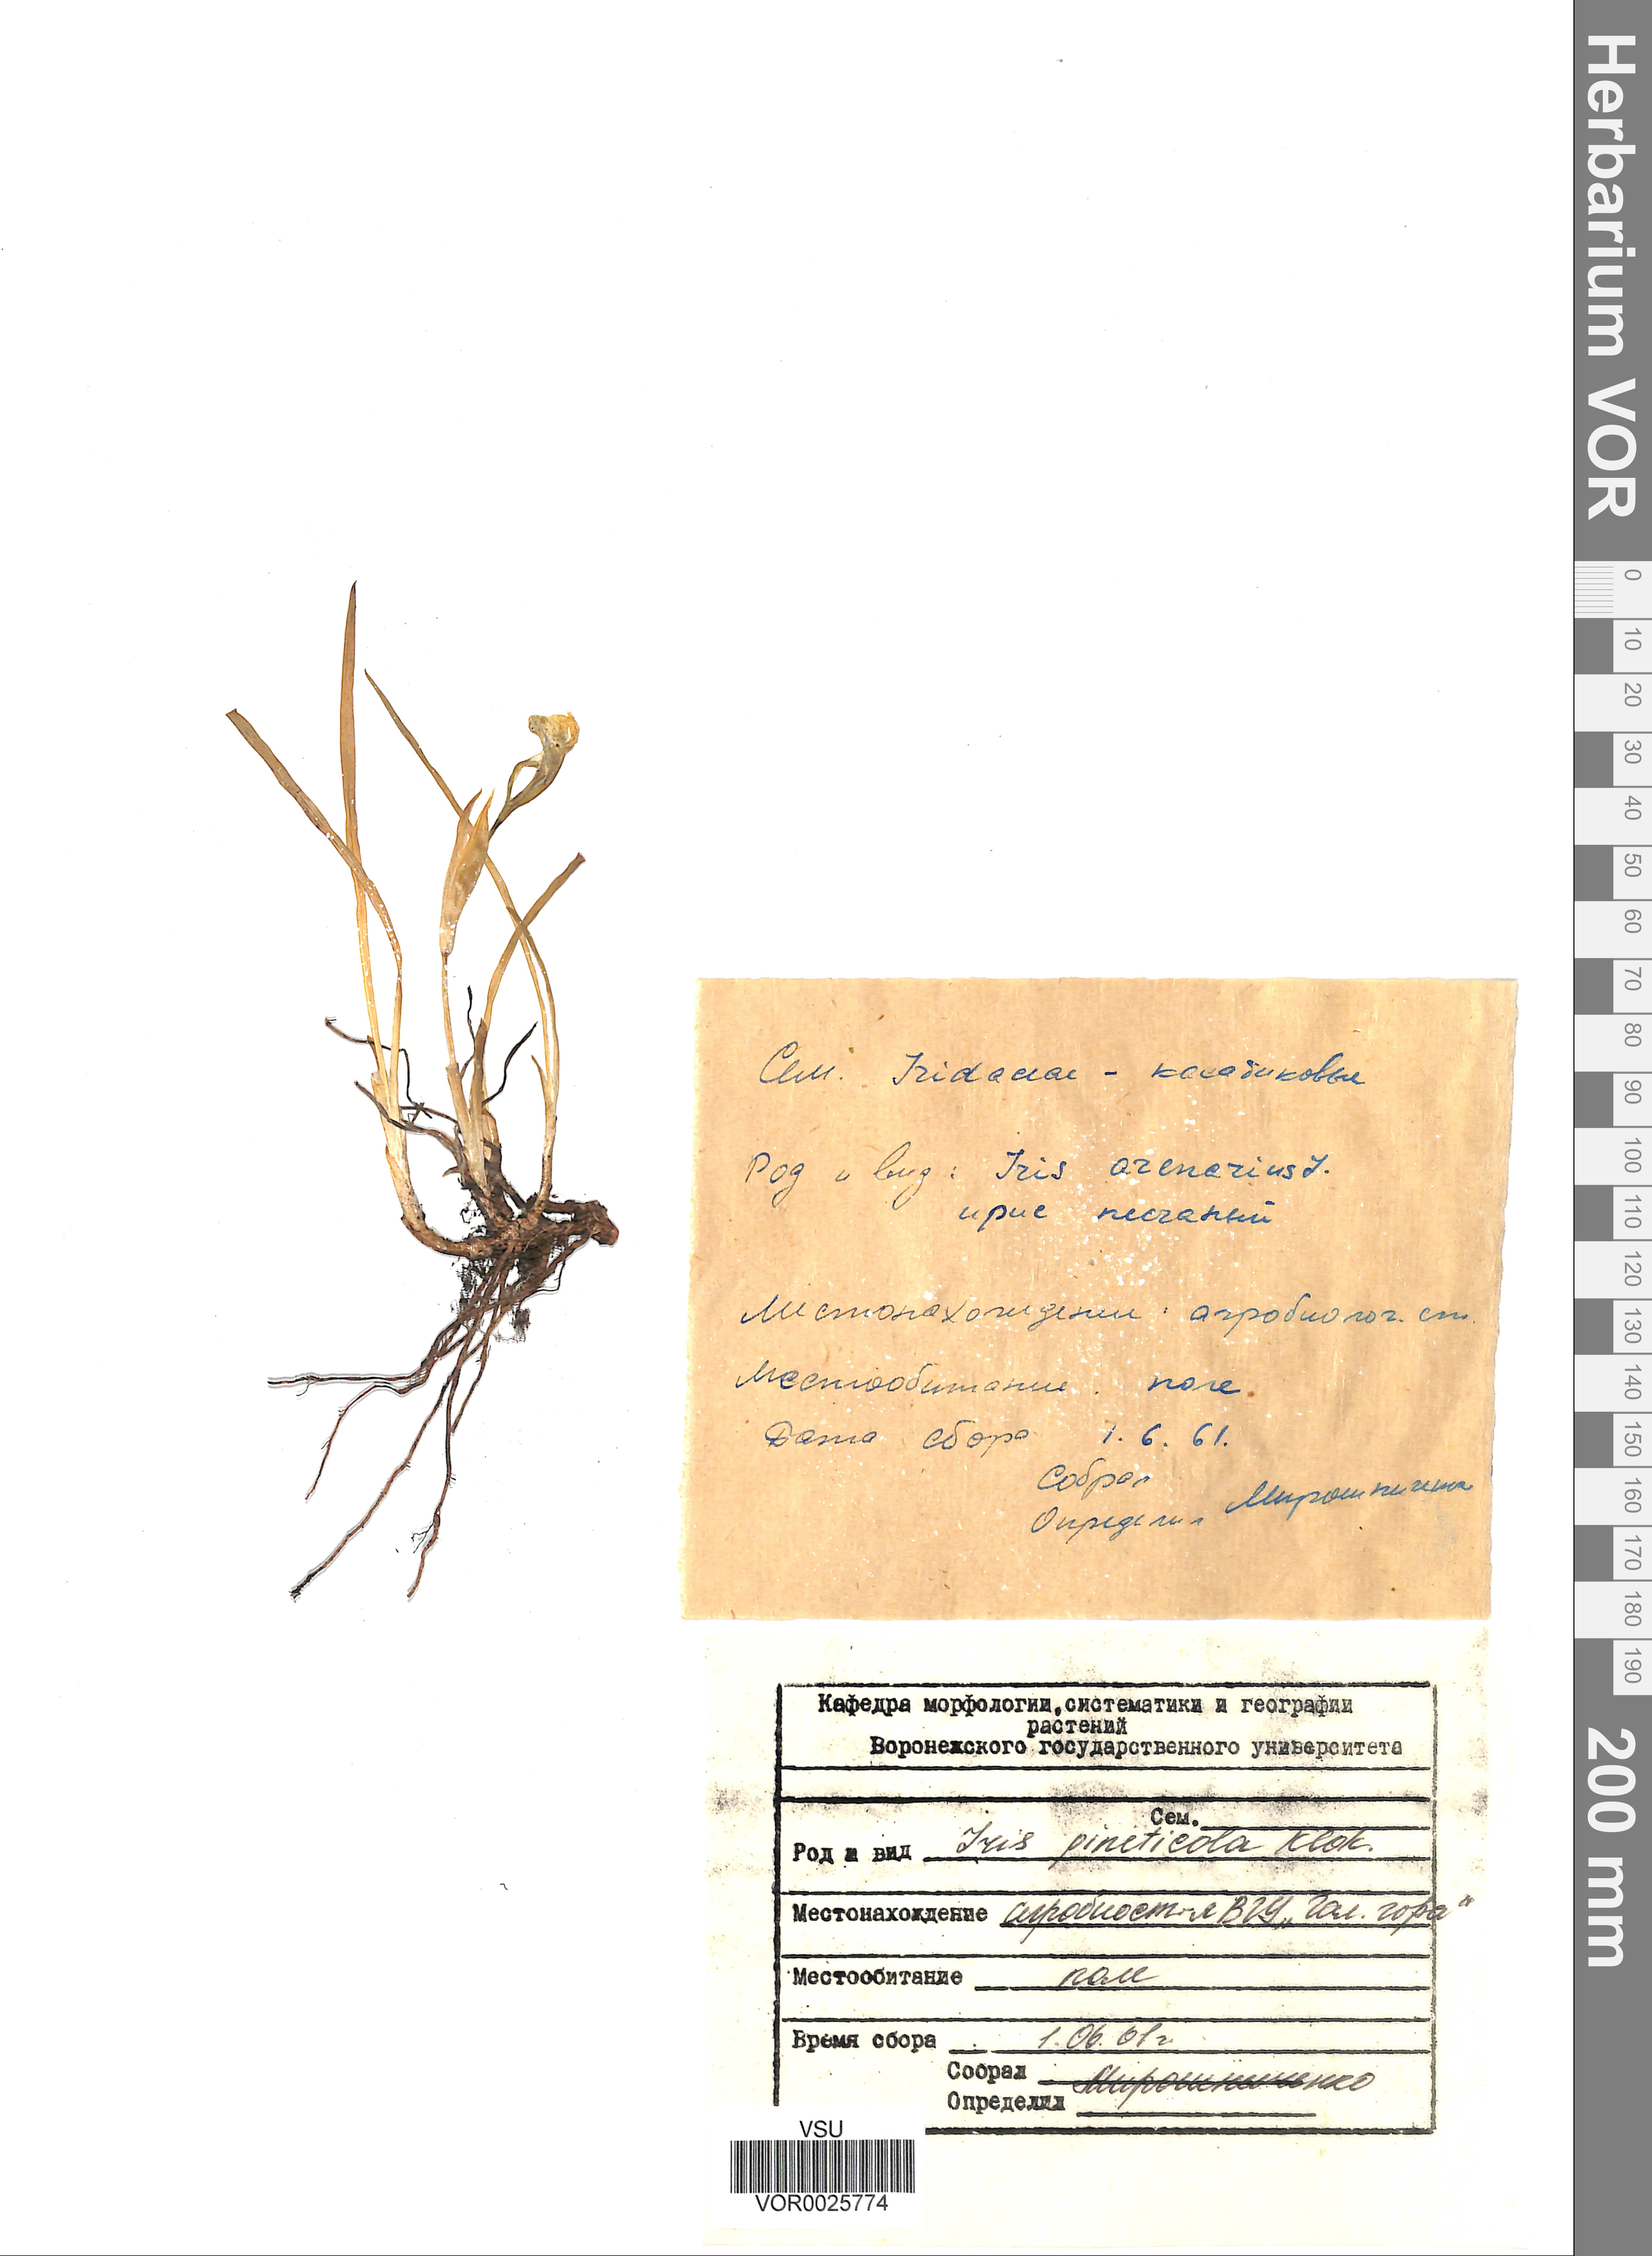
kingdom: Plantae
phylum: Tracheophyta
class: Liliopsida
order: Asparagales
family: Iridaceae
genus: Iris
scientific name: Iris arenaria
